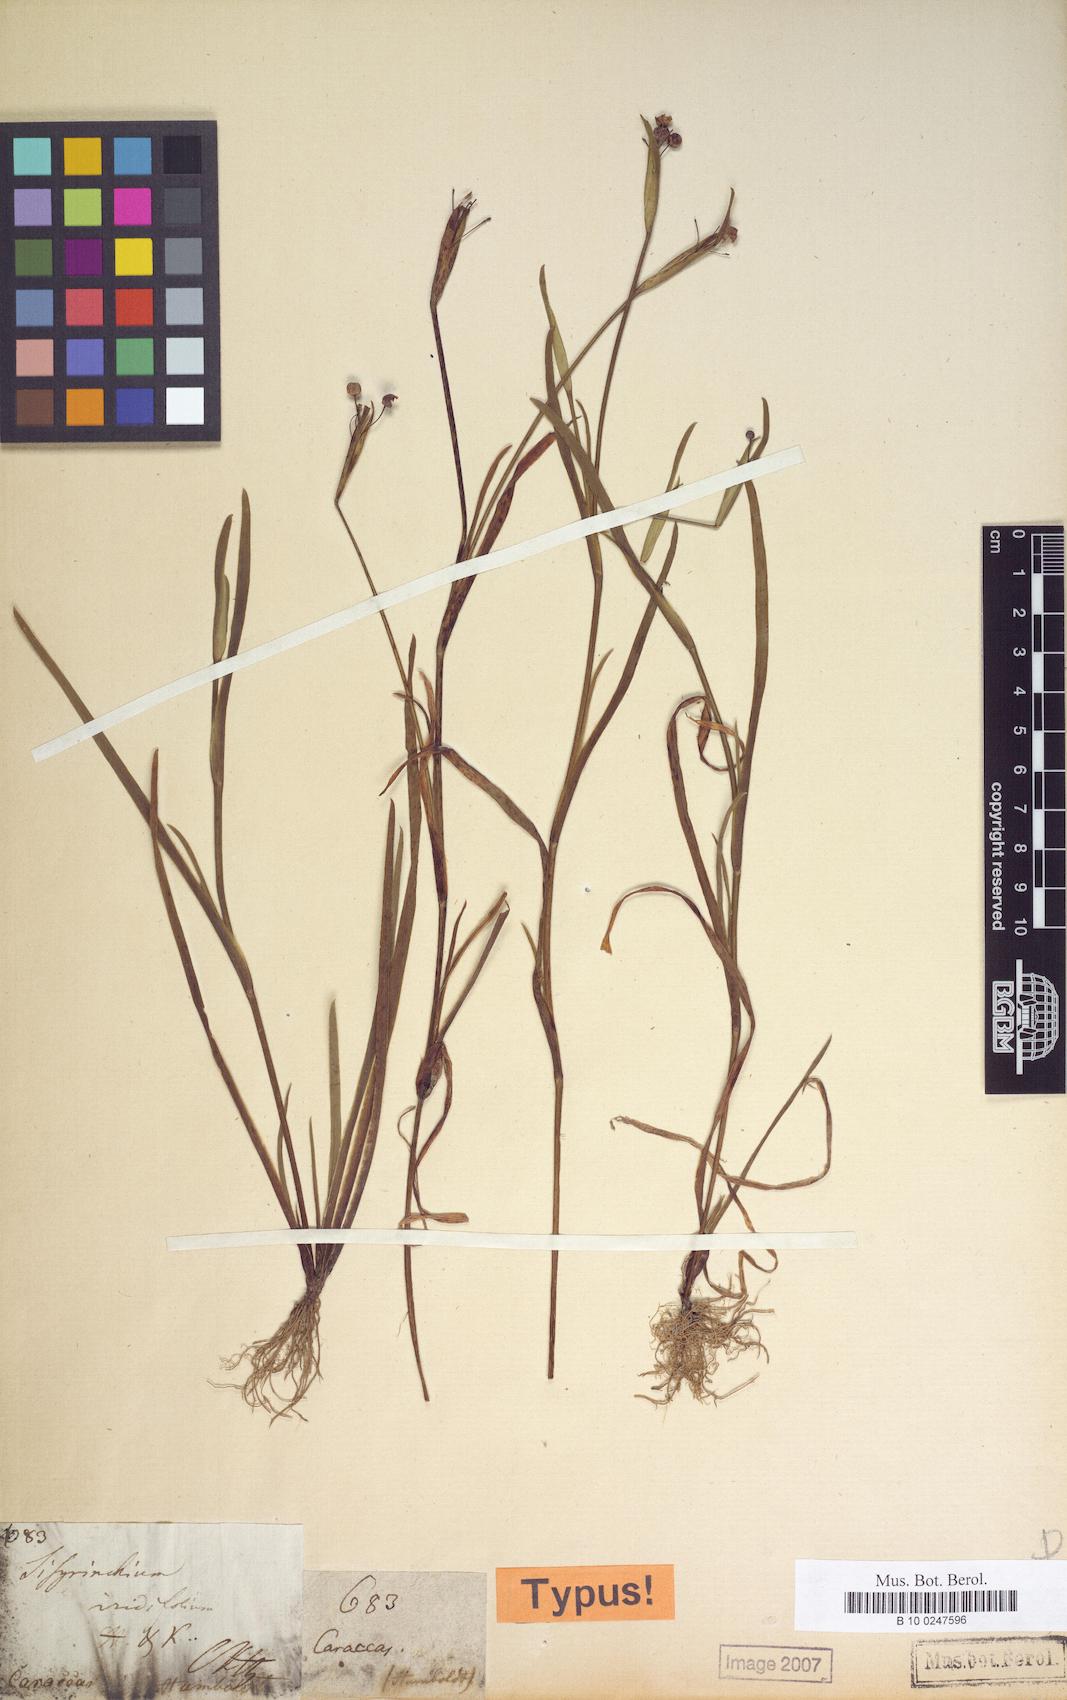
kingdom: Plantae
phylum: Tracheophyta
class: Liliopsida
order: Asparagales
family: Iridaceae
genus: Sisyrinchium
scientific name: Sisyrinchium micranthum
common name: Bermuda pigroot
